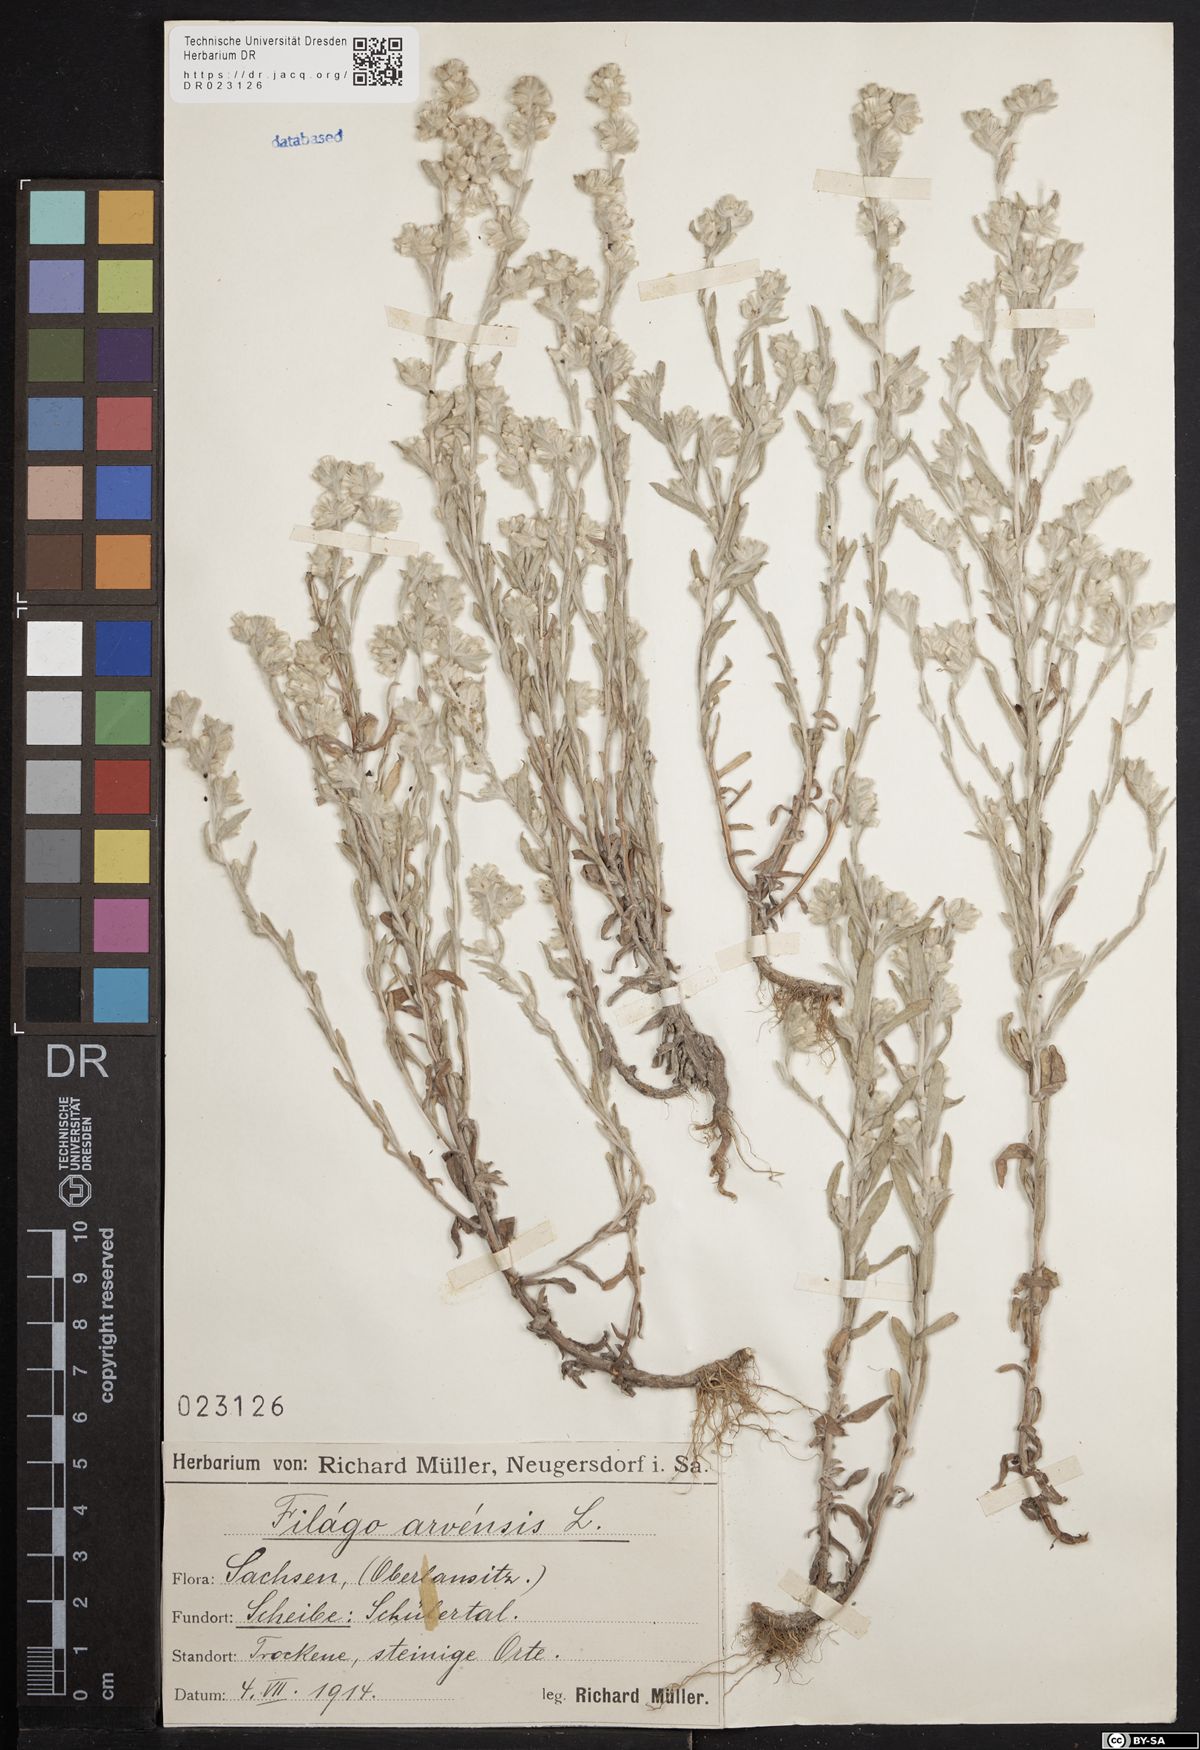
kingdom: Plantae
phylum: Tracheophyta
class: Magnoliopsida
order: Asterales
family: Asteraceae
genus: Filago
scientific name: Filago arvensis
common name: Field cudweed
